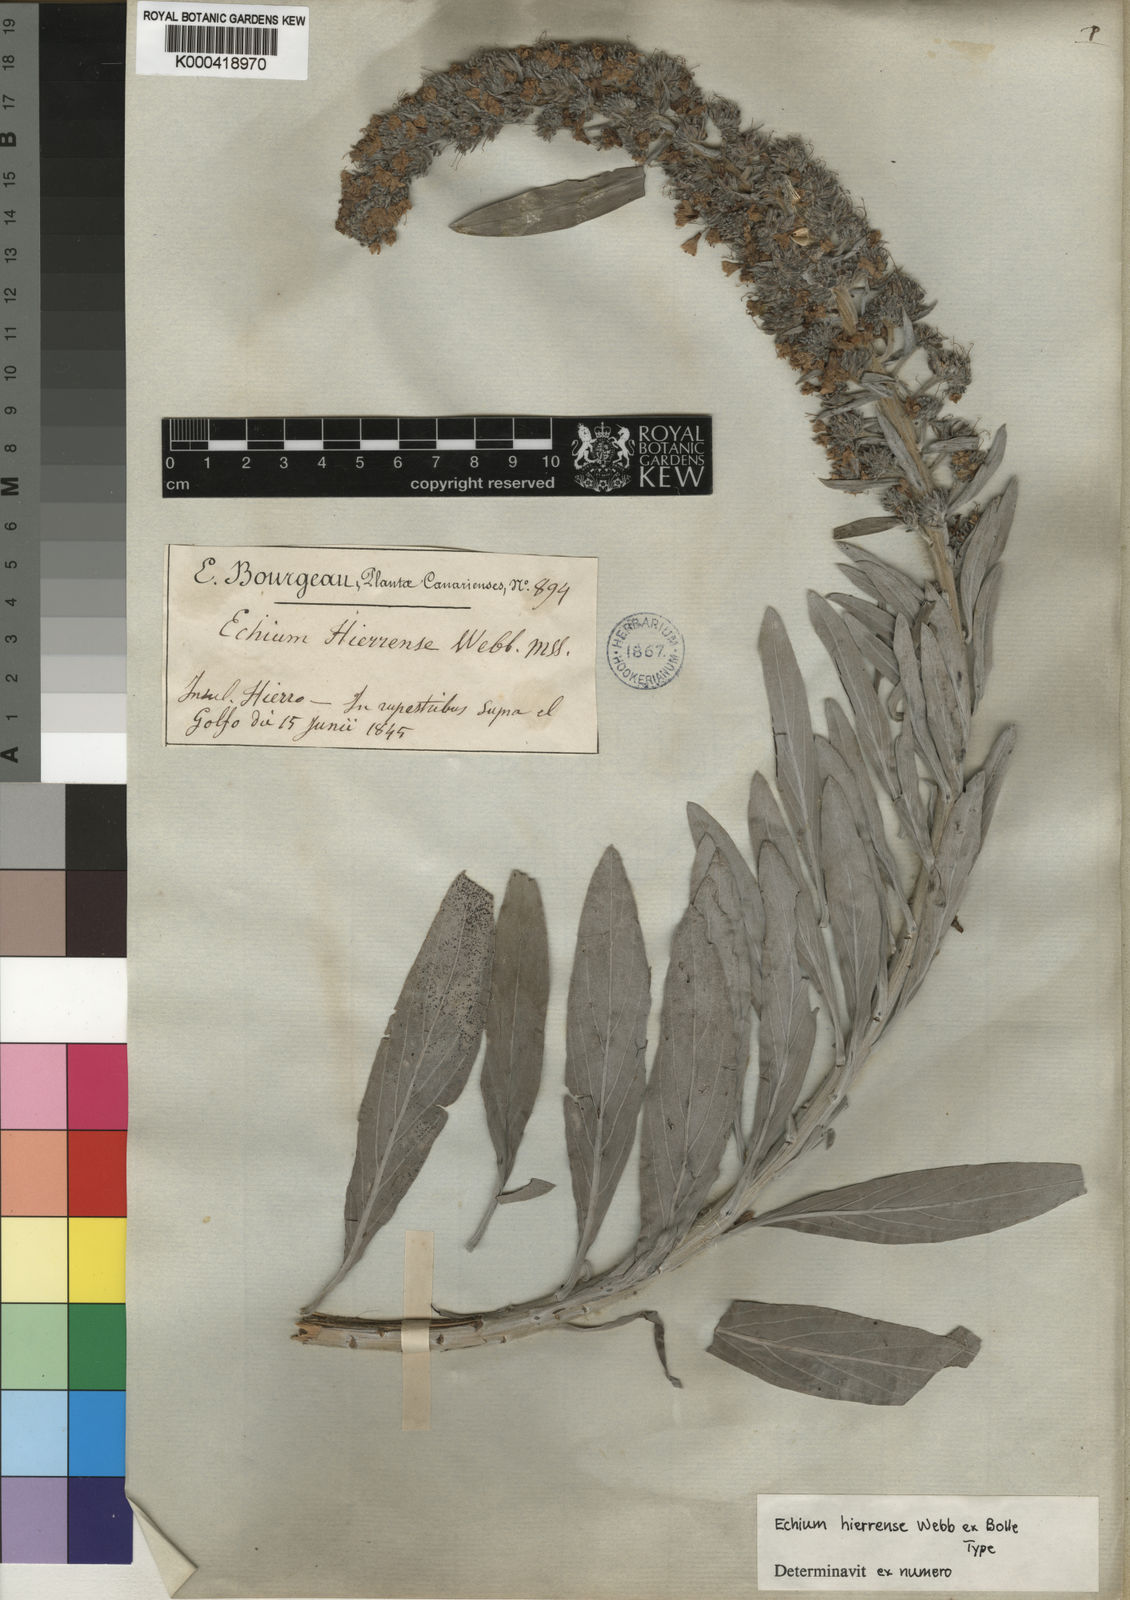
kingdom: Plantae
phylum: Tracheophyta
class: Magnoliopsida
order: Boraginales
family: Boraginaceae
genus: Echium
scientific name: Echium hierrense
